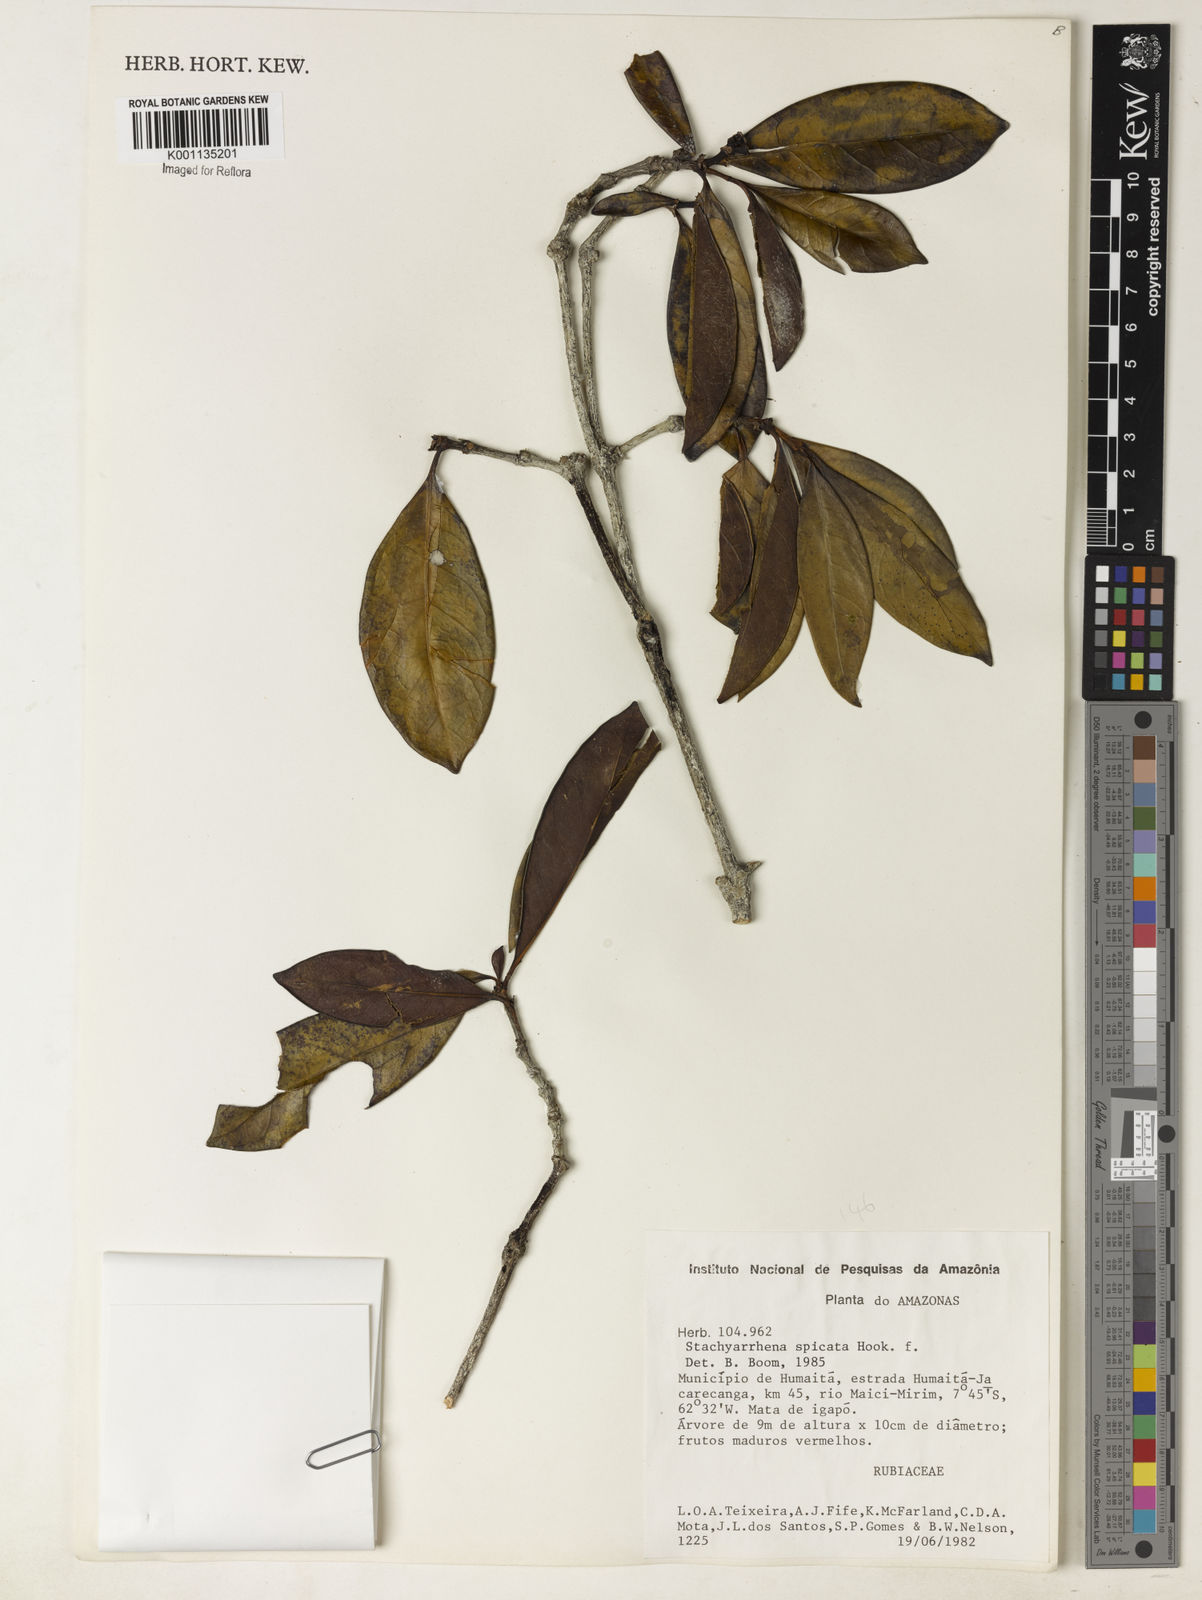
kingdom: Plantae
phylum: Tracheophyta
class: Magnoliopsida
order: Gentianales
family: Rubiaceae
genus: Stachyarrhena
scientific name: Stachyarrhena spicata
